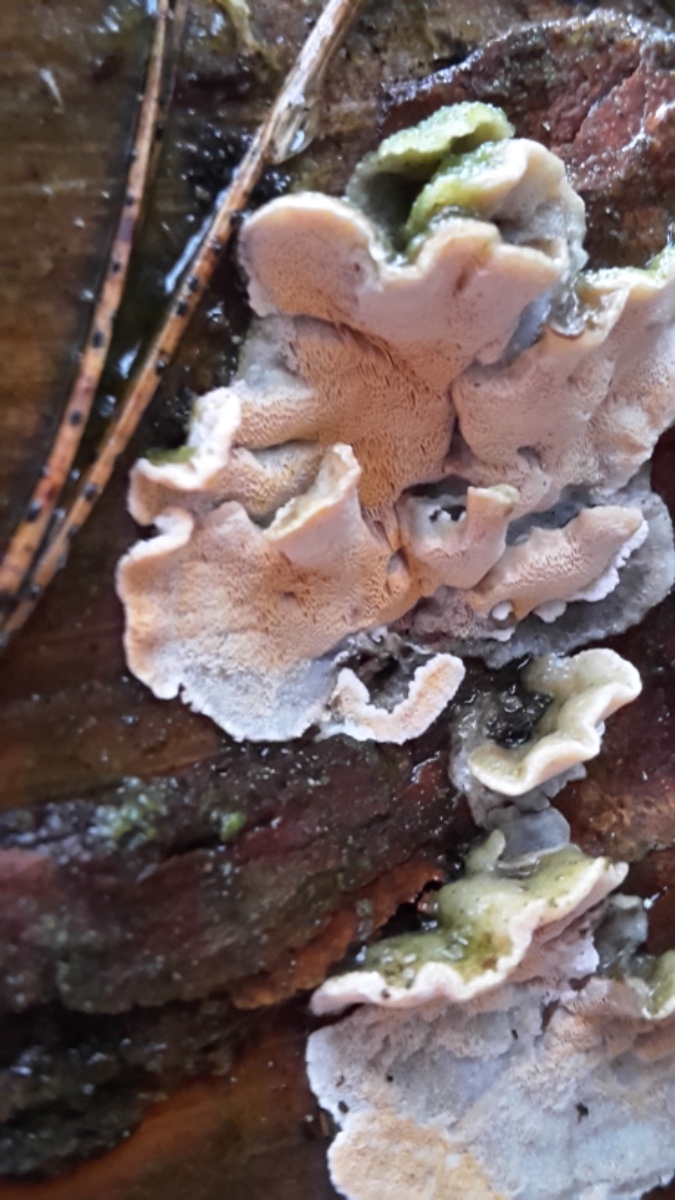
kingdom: Fungi
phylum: Basidiomycota
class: Agaricomycetes
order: Polyporales
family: Incrustoporiaceae
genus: Skeletocutis
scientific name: Skeletocutis amorpha
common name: orange krystalporesvamp
